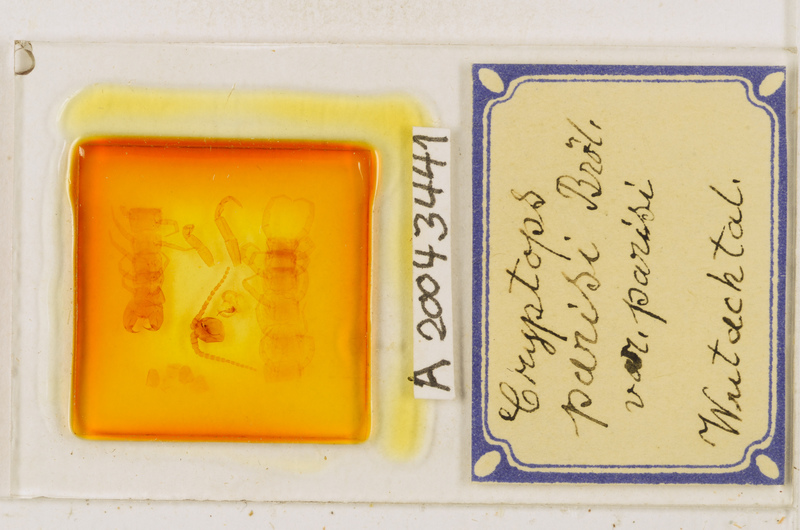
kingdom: Animalia
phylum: Arthropoda
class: Chilopoda
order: Scolopendromorpha
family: Cryptopidae
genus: Cryptops
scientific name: Cryptops parisi
